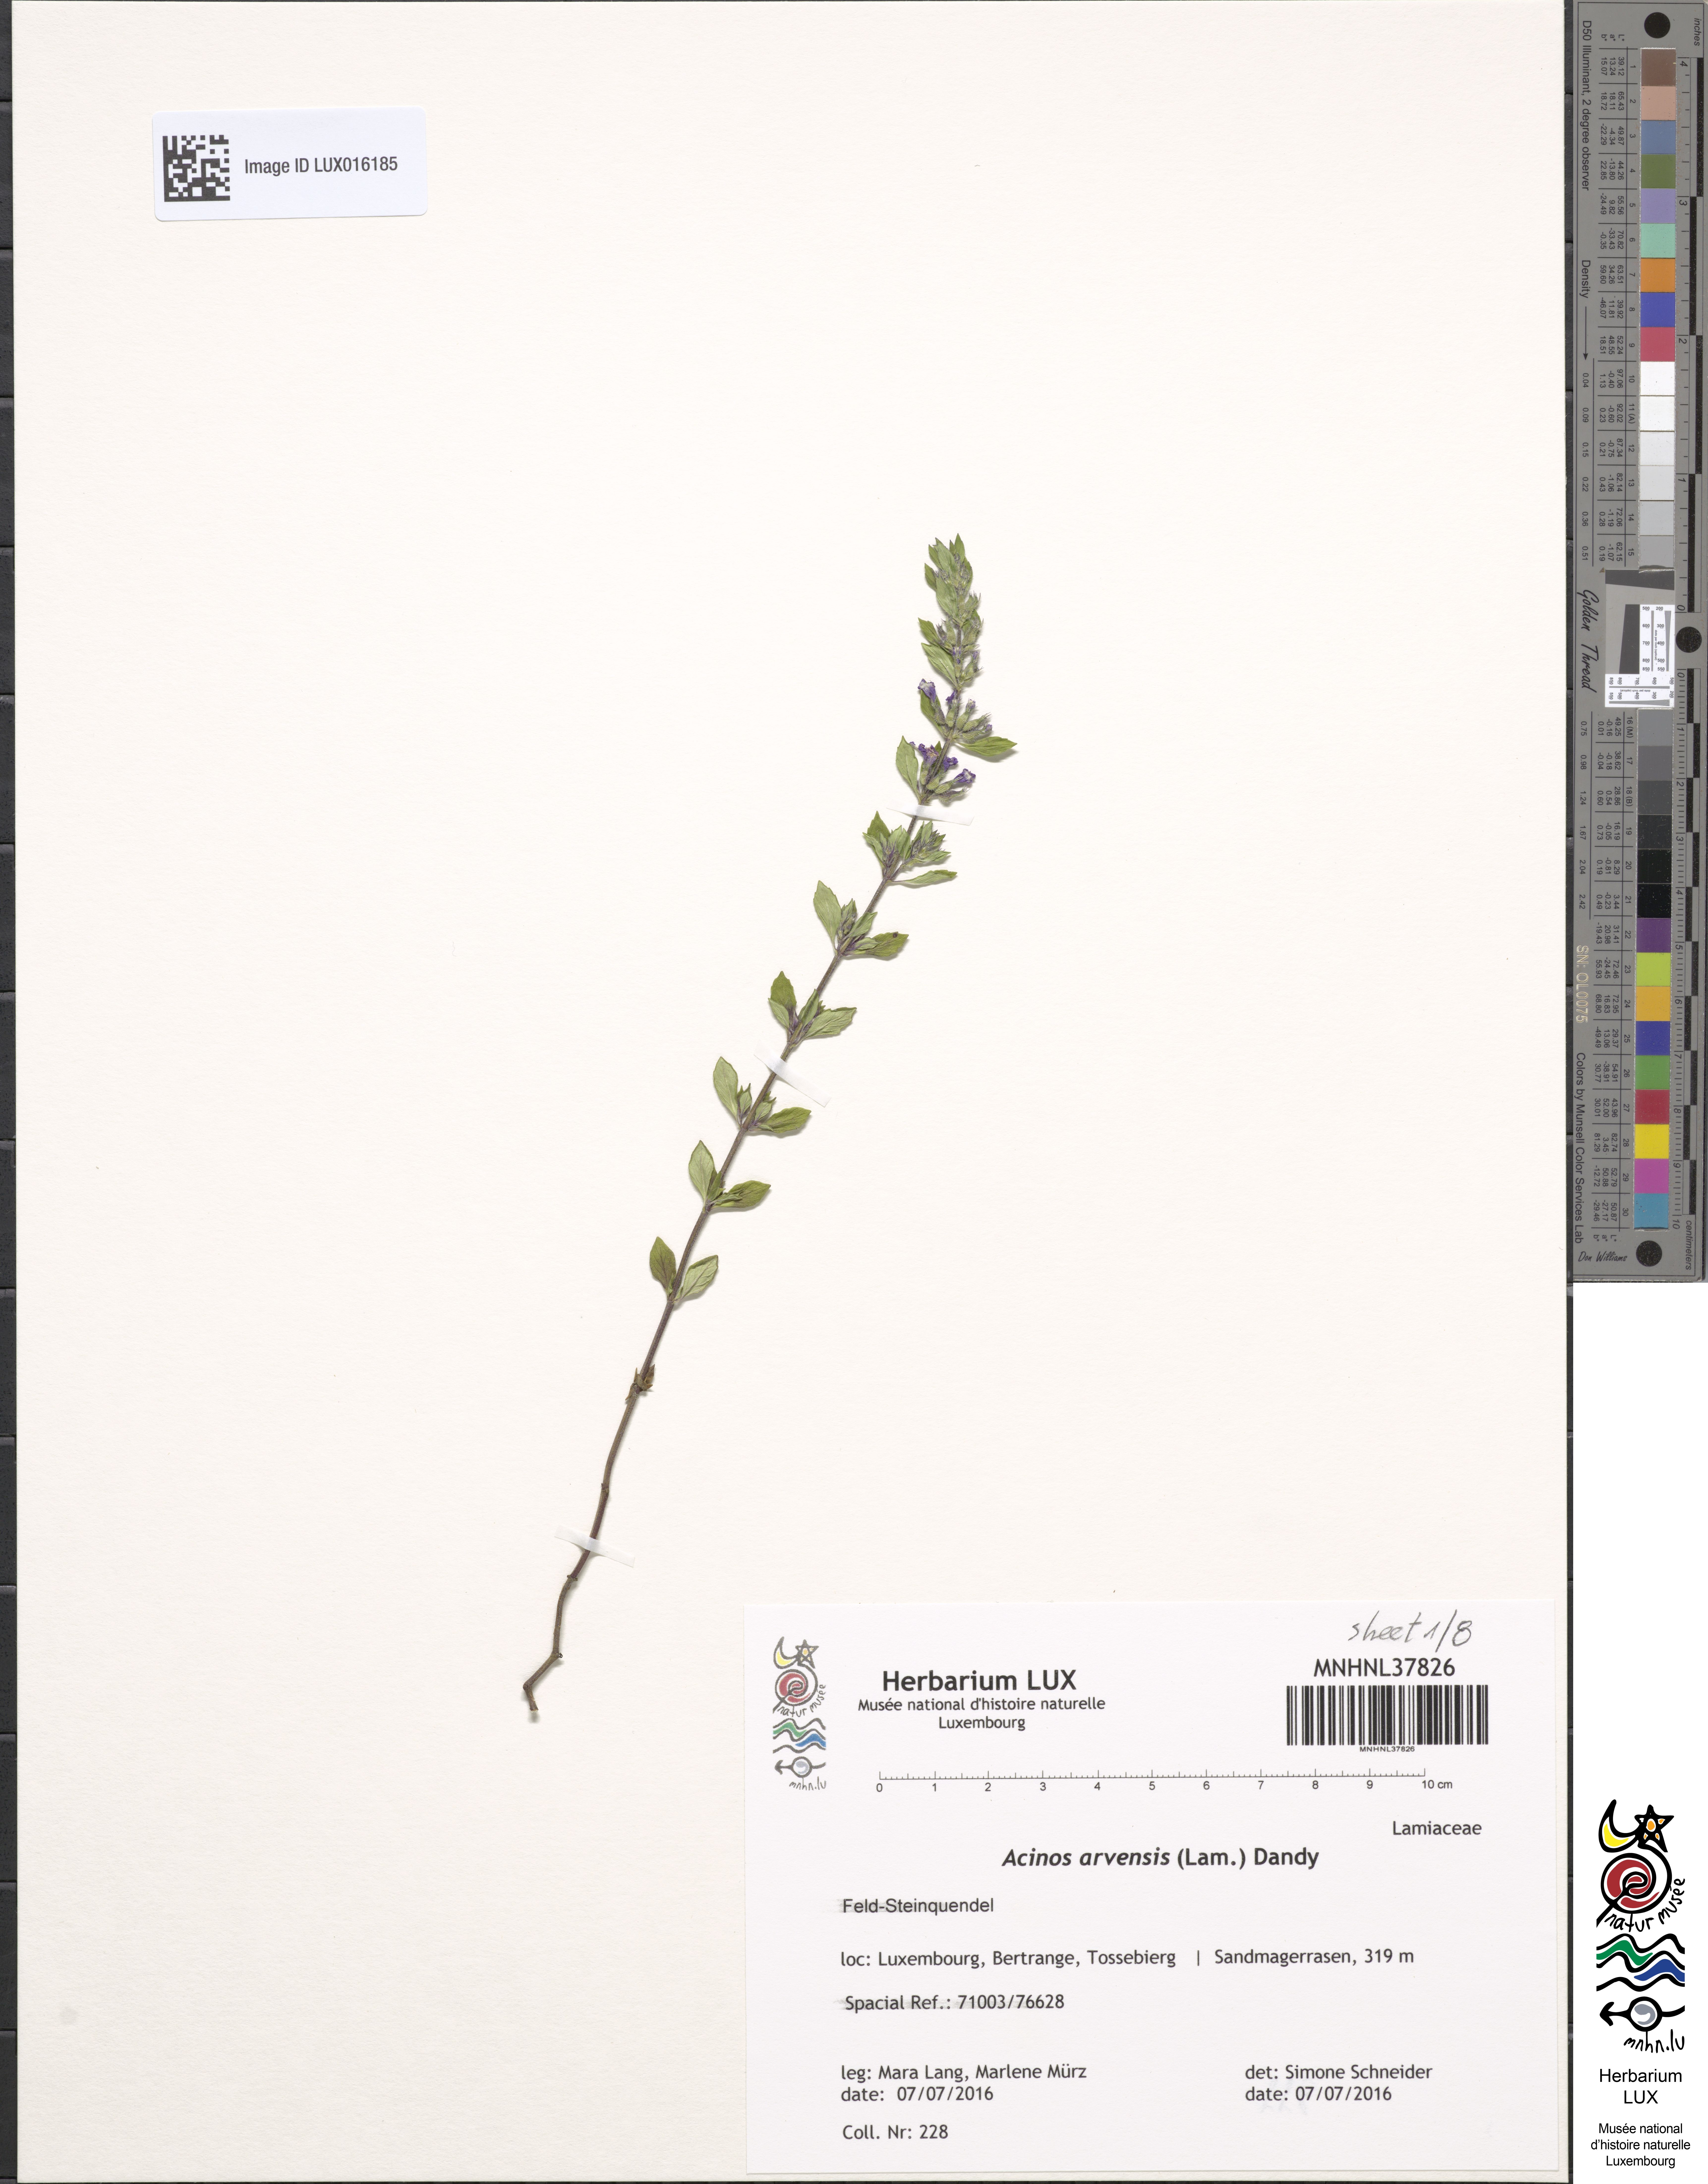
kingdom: Plantae
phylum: Tracheophyta
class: Magnoliopsida
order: Lamiales
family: Lamiaceae
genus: Clinopodium
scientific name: Clinopodium acinos
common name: Basil thyme
